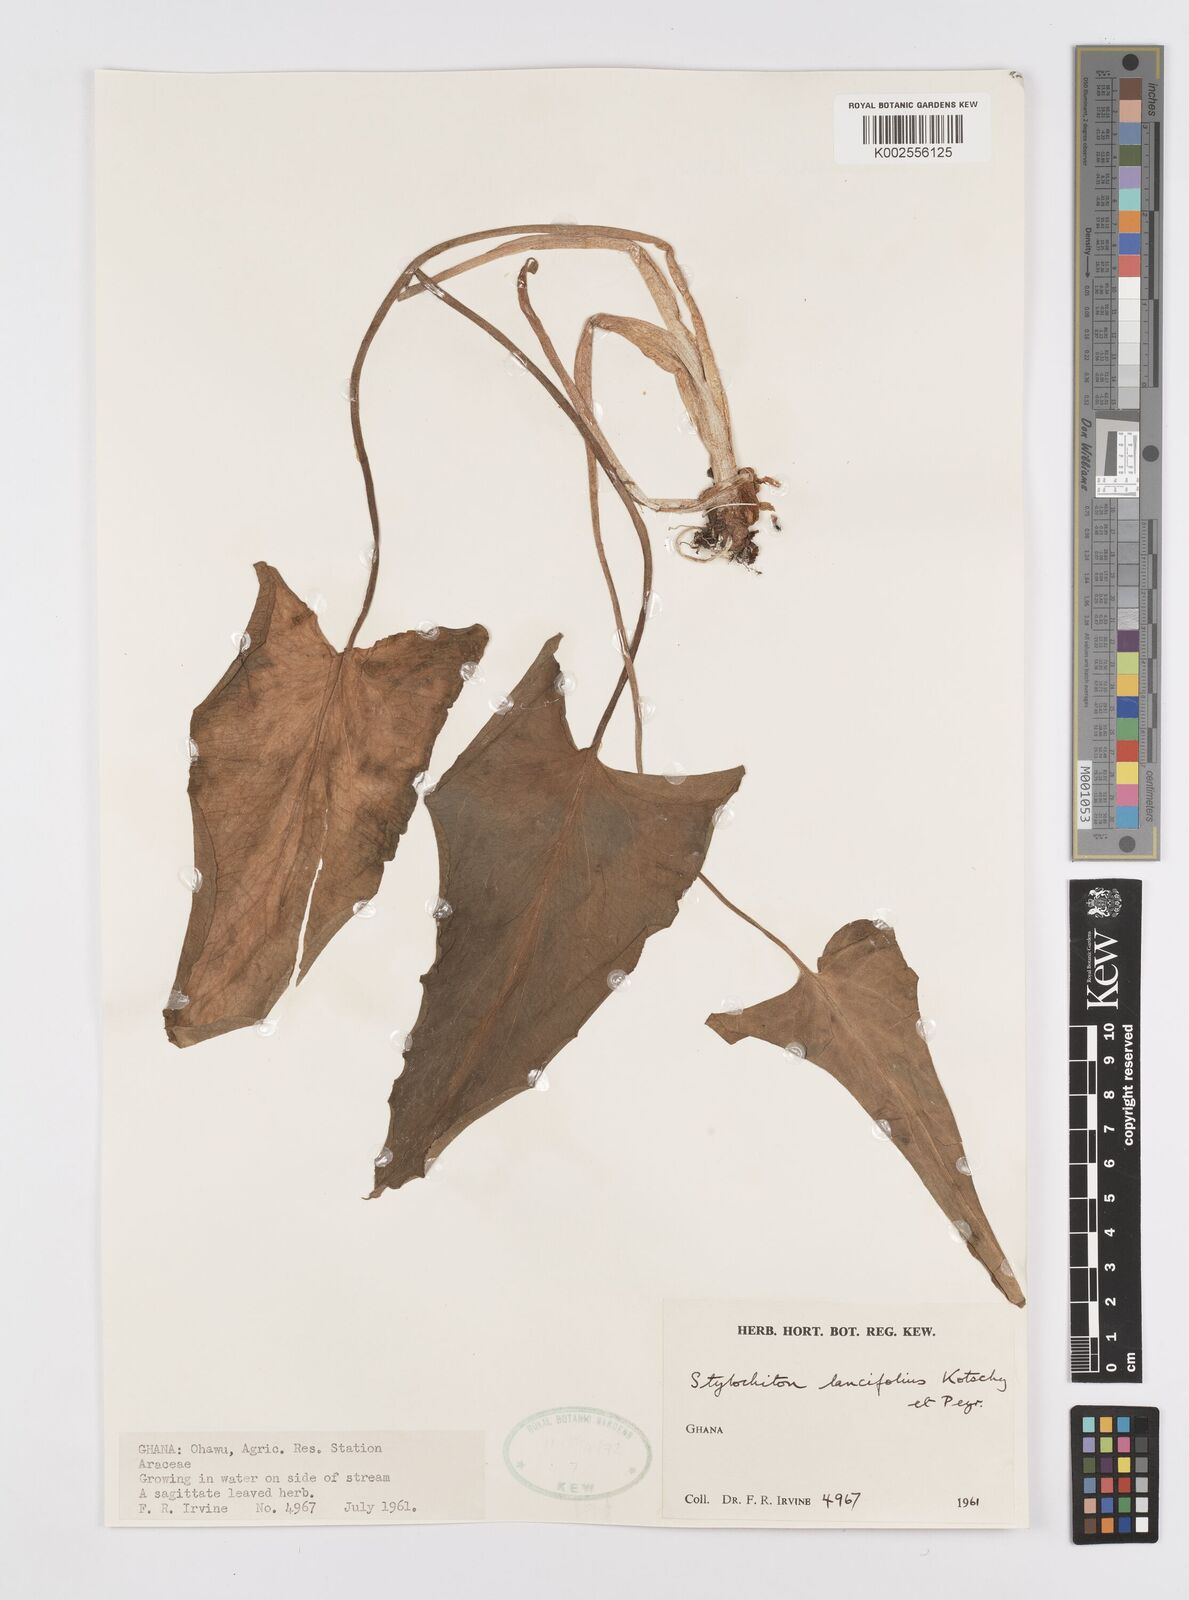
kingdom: Plantae
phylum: Tracheophyta
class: Liliopsida
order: Alismatales
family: Araceae
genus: Stylochaeton
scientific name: Stylochaeton lancifolium
